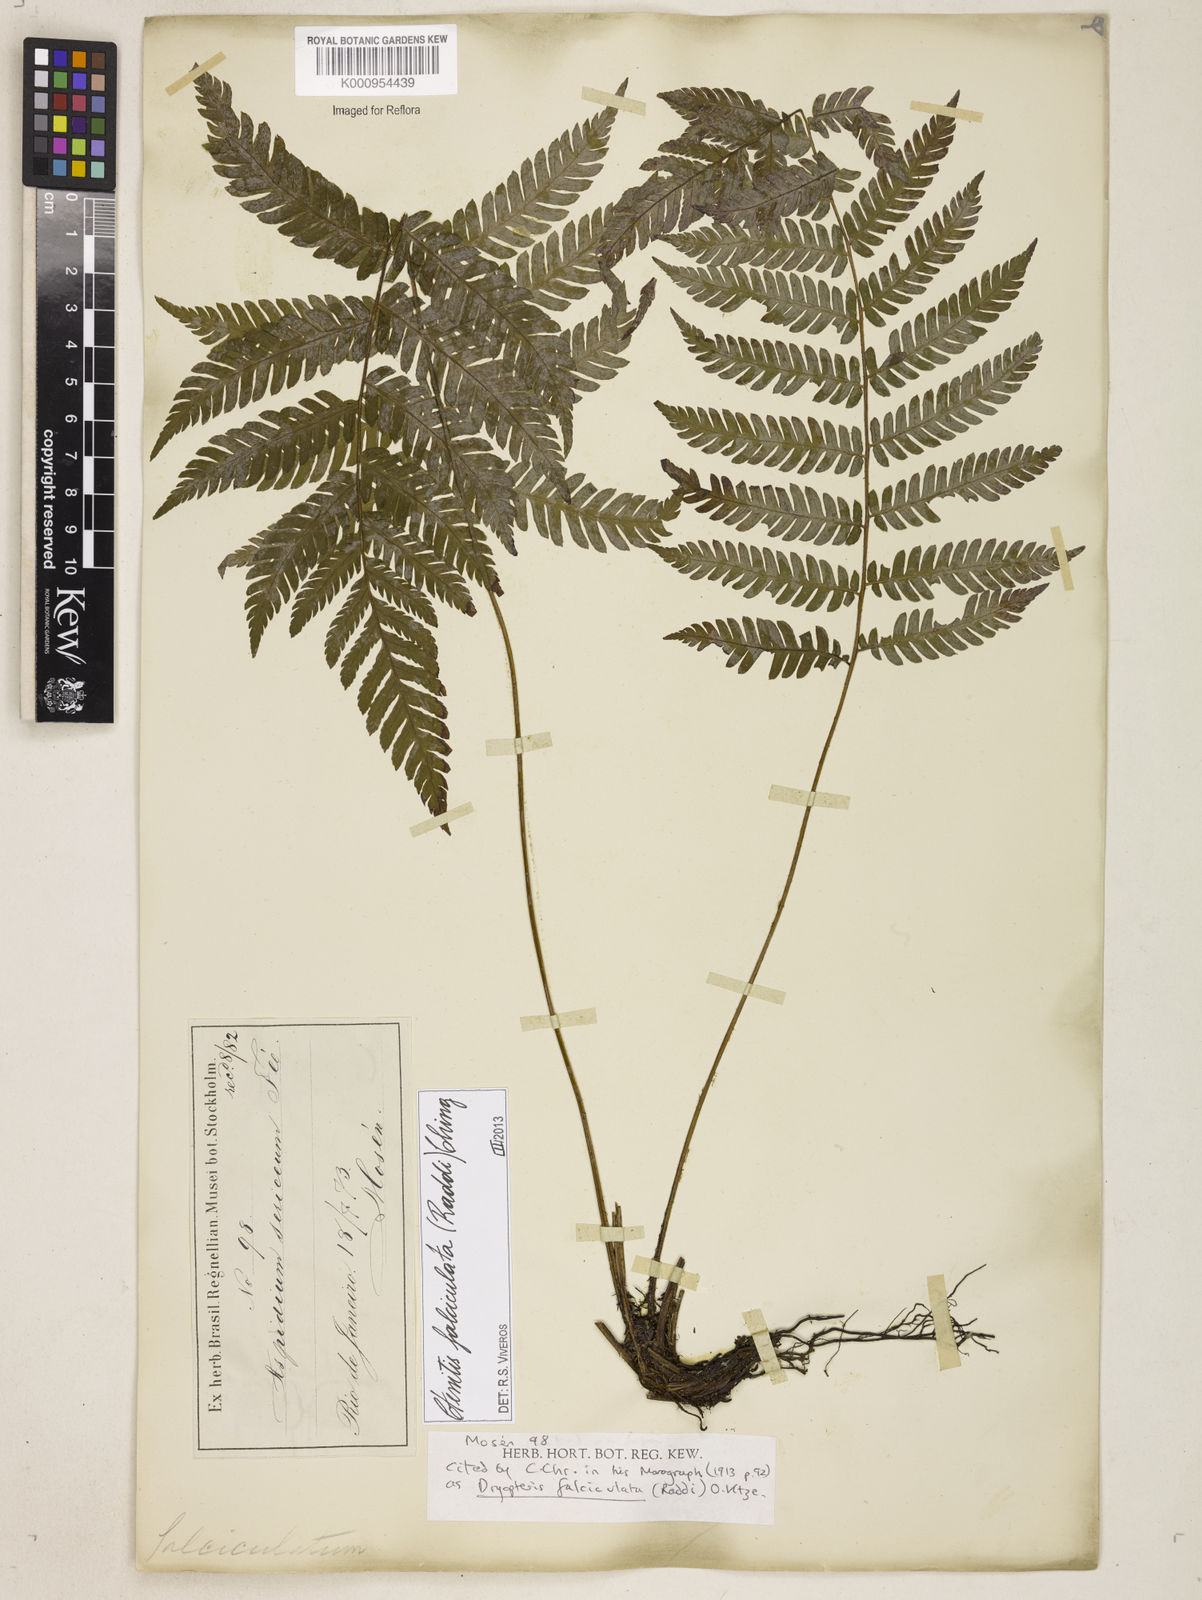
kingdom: Plantae
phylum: Tracheophyta
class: Polypodiopsida
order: Polypodiales
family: Dryopteridaceae
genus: Ctenitis
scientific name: Ctenitis falciculata
